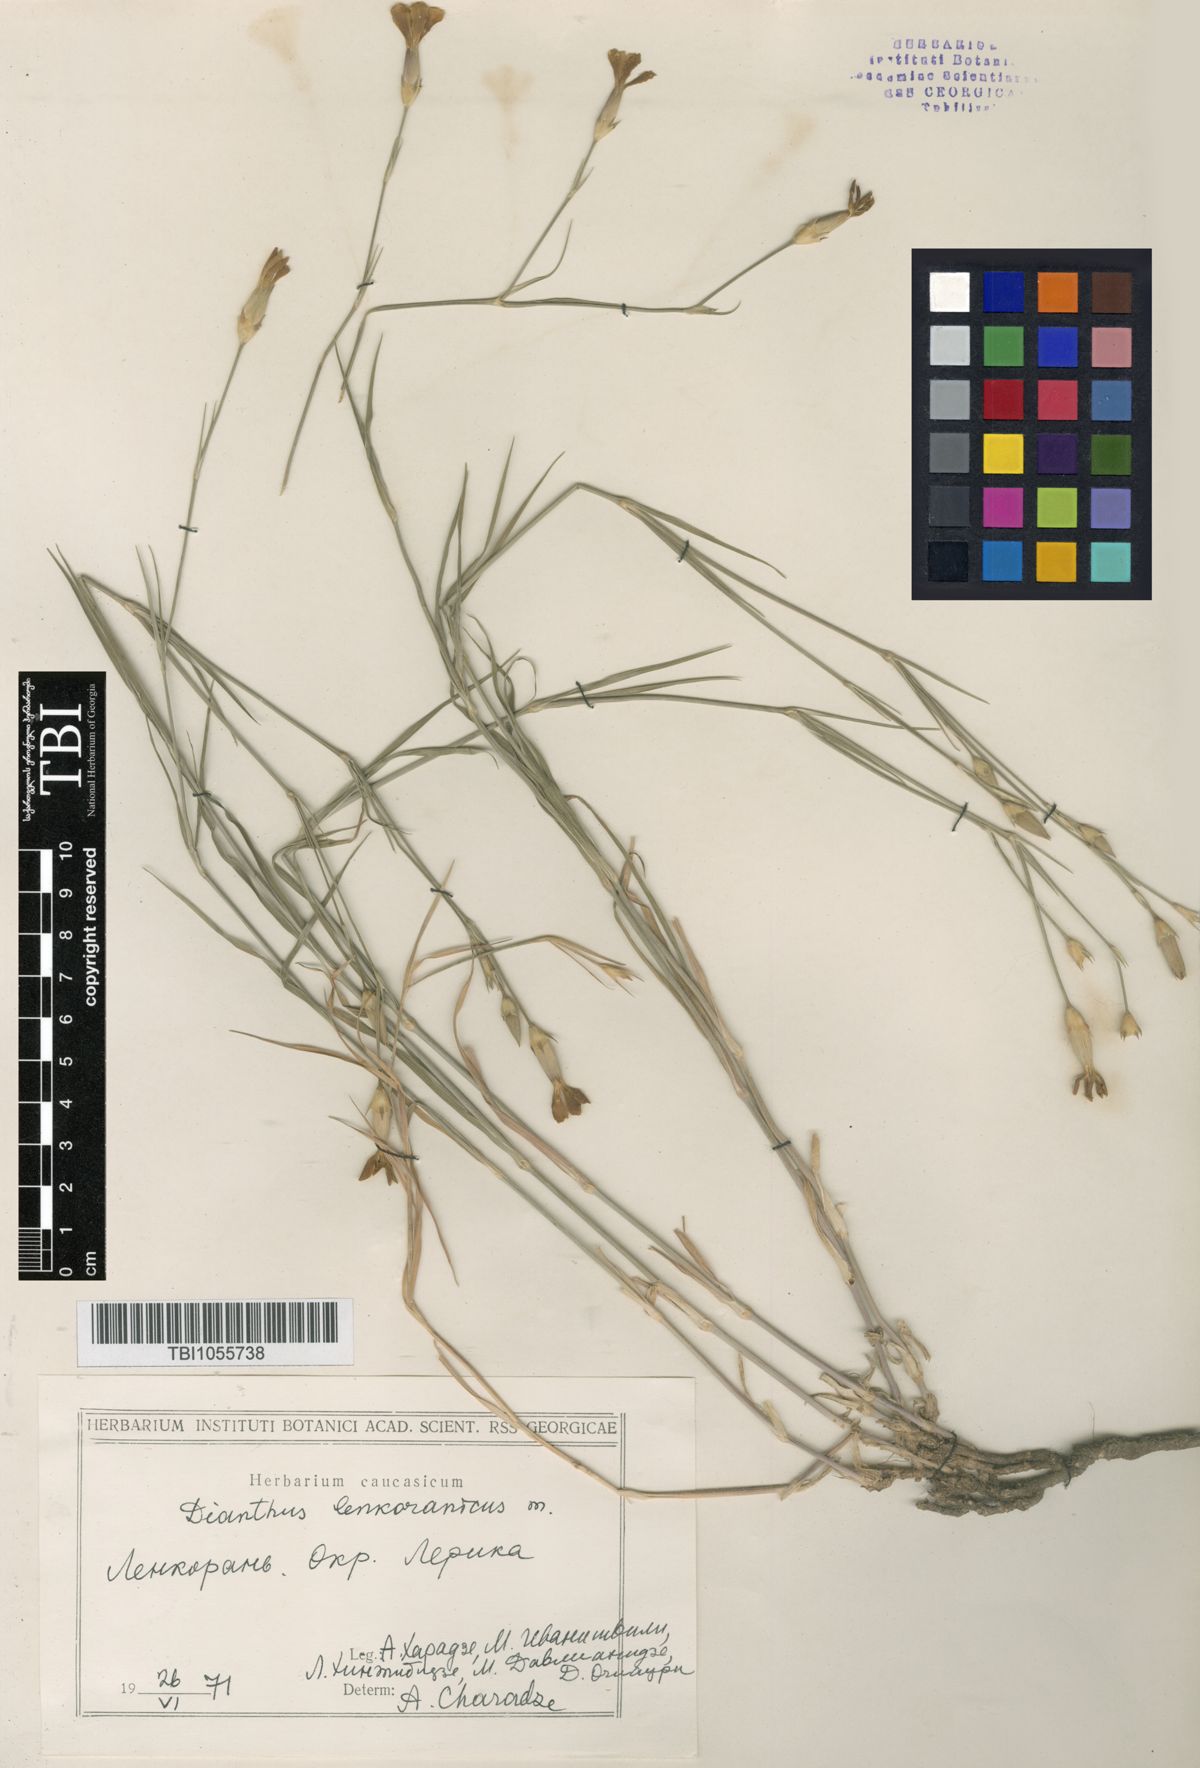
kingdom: Plantae
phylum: Tracheophyta
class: Magnoliopsida
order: Caryophyllales
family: Caryophyllaceae
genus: Dianthus
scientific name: Dianthus
